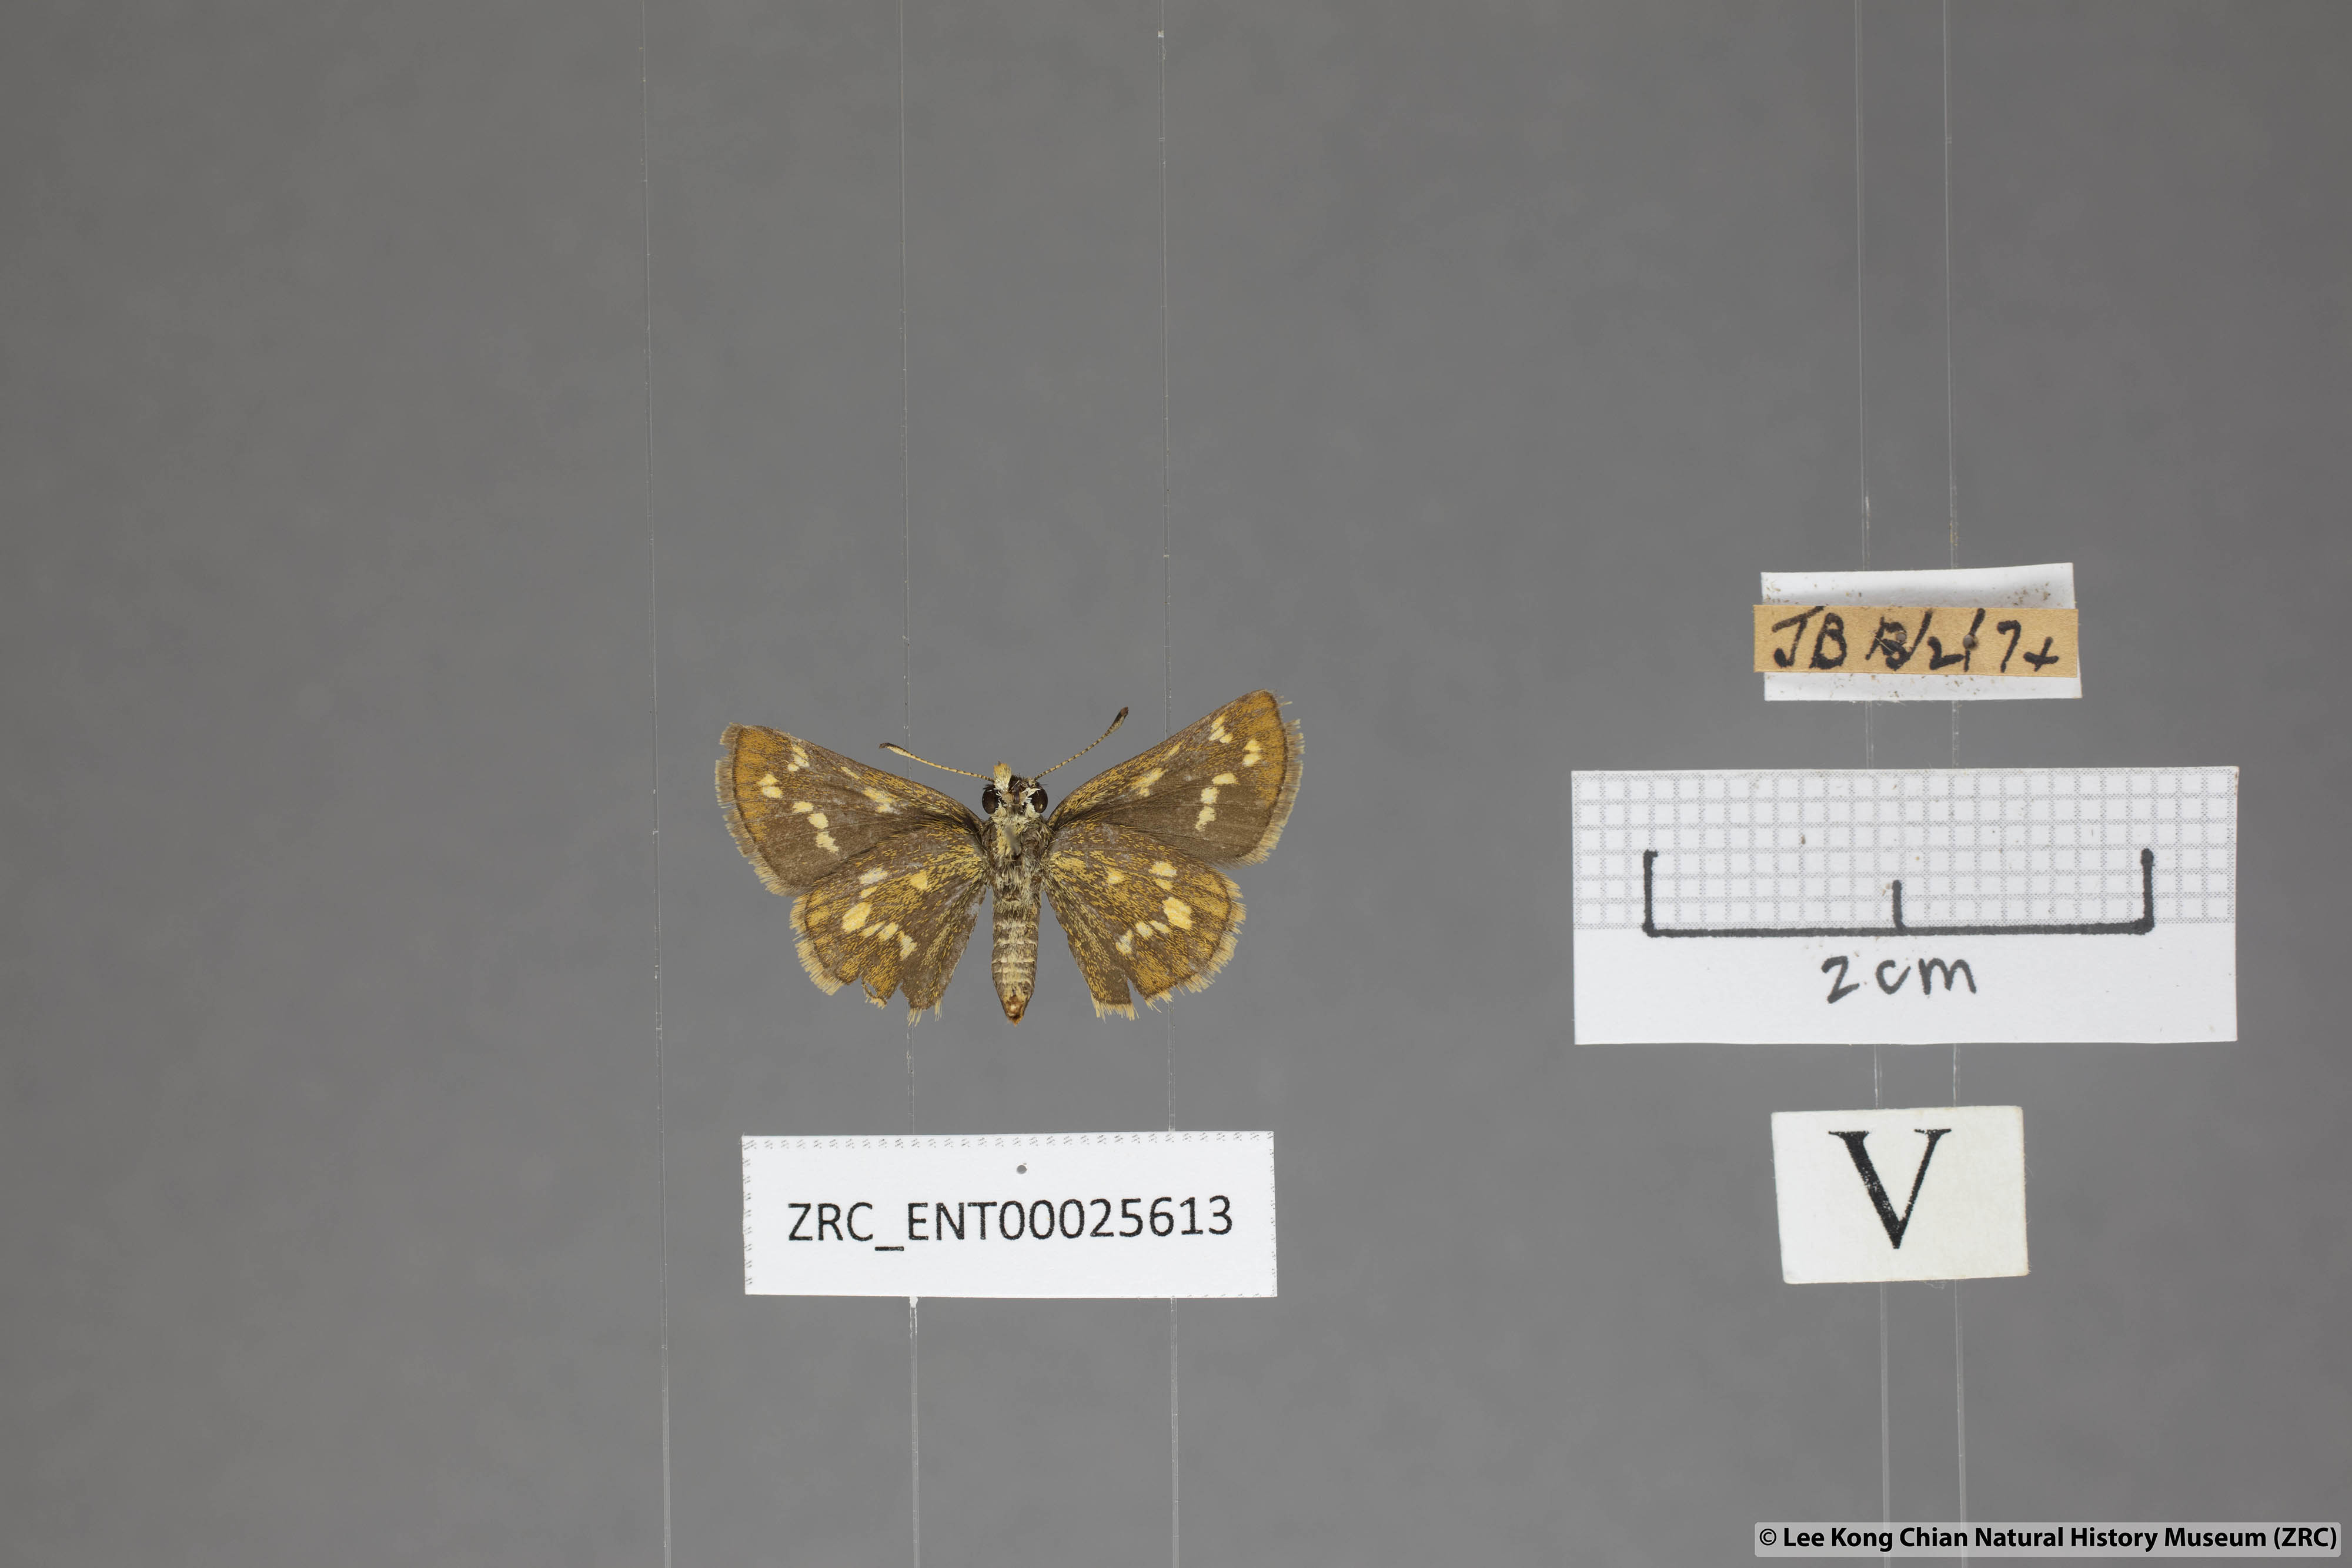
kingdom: Animalia
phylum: Arthropoda
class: Insecta
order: Lepidoptera
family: Hesperiidae
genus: Taractrocera
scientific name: Taractrocera ardonia
